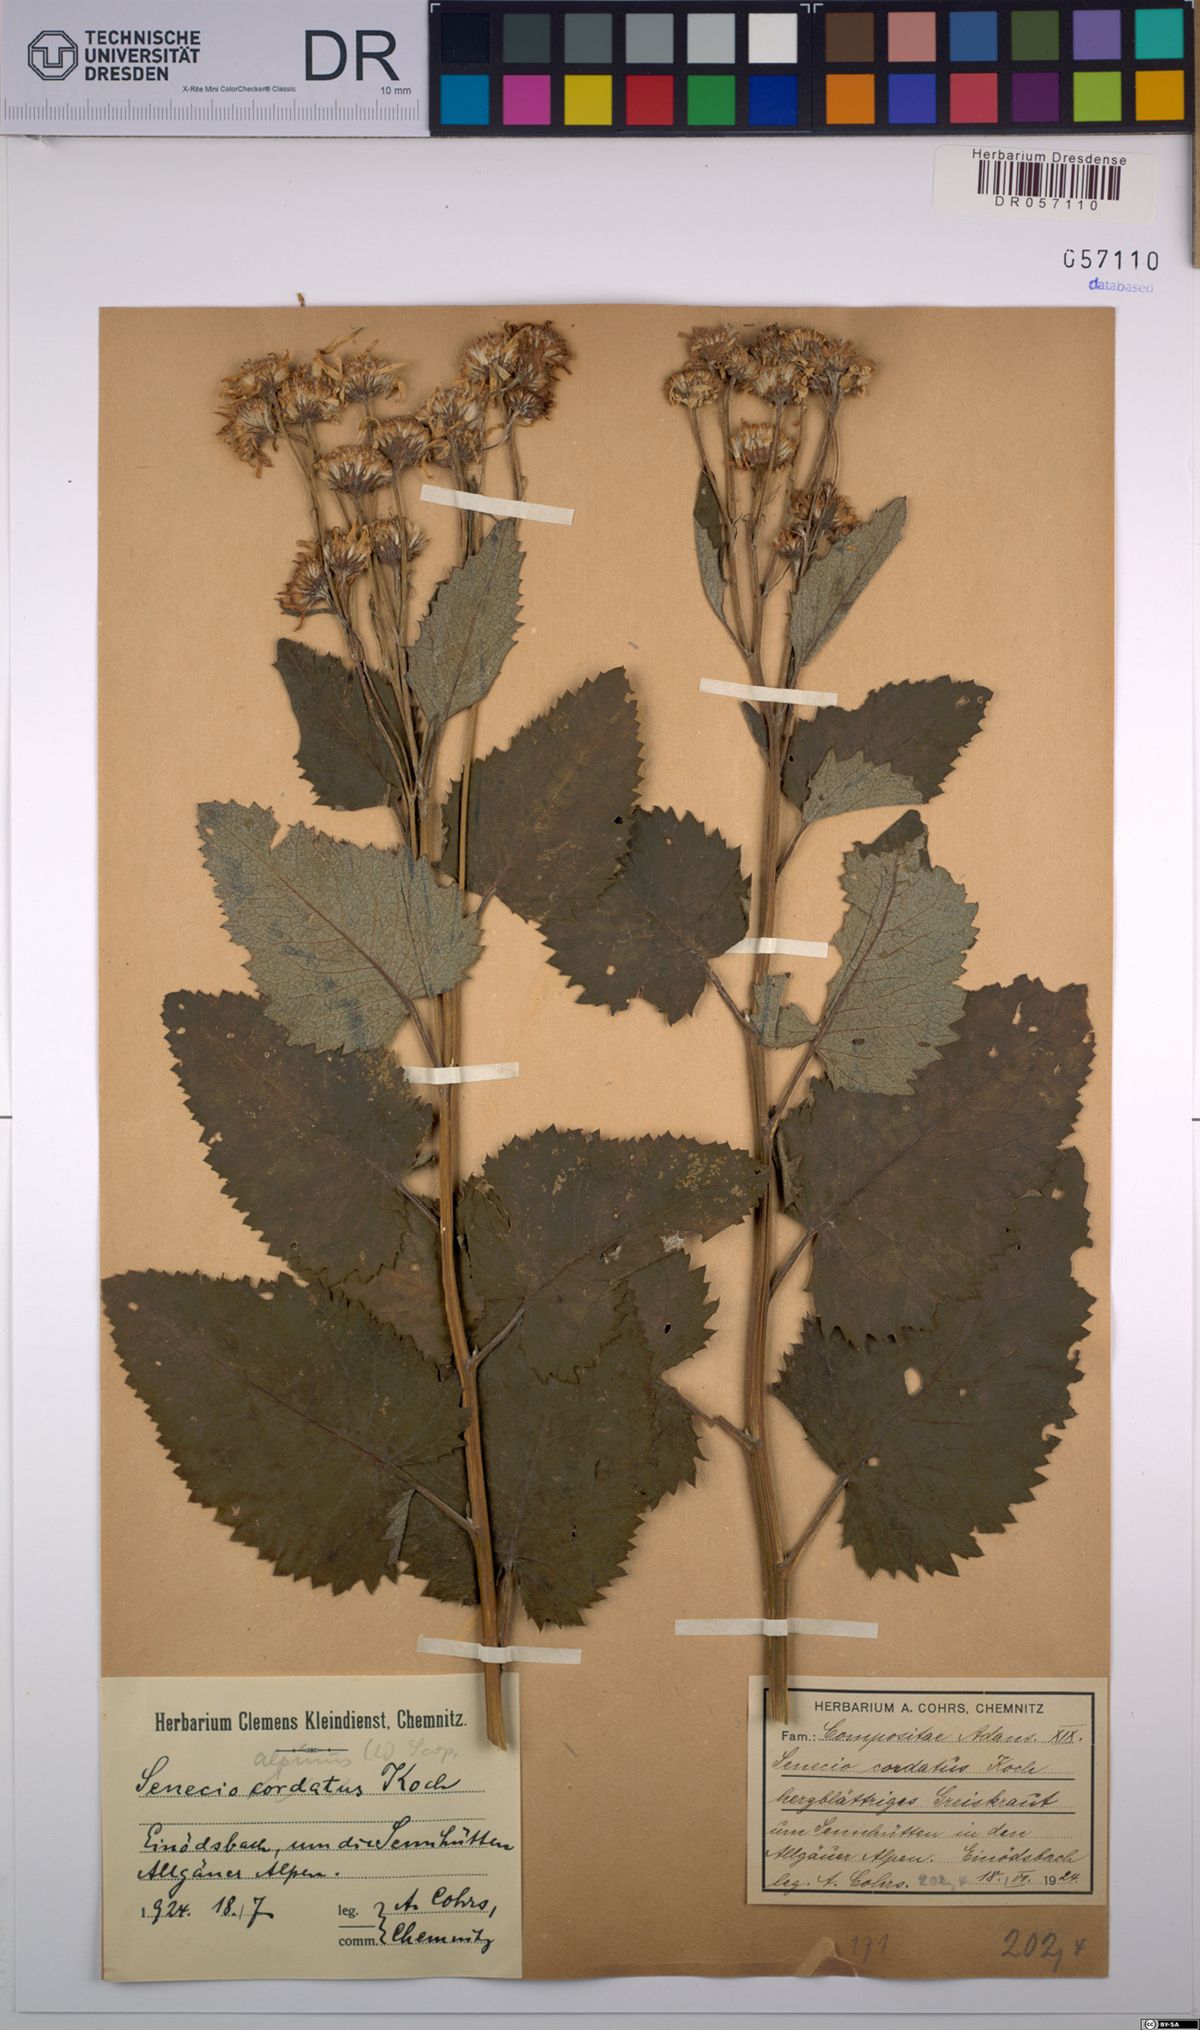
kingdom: Plantae
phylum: Tracheophyta
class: Magnoliopsida
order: Asterales
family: Asteraceae
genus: Jacobaea
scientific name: Jacobaea alpina
